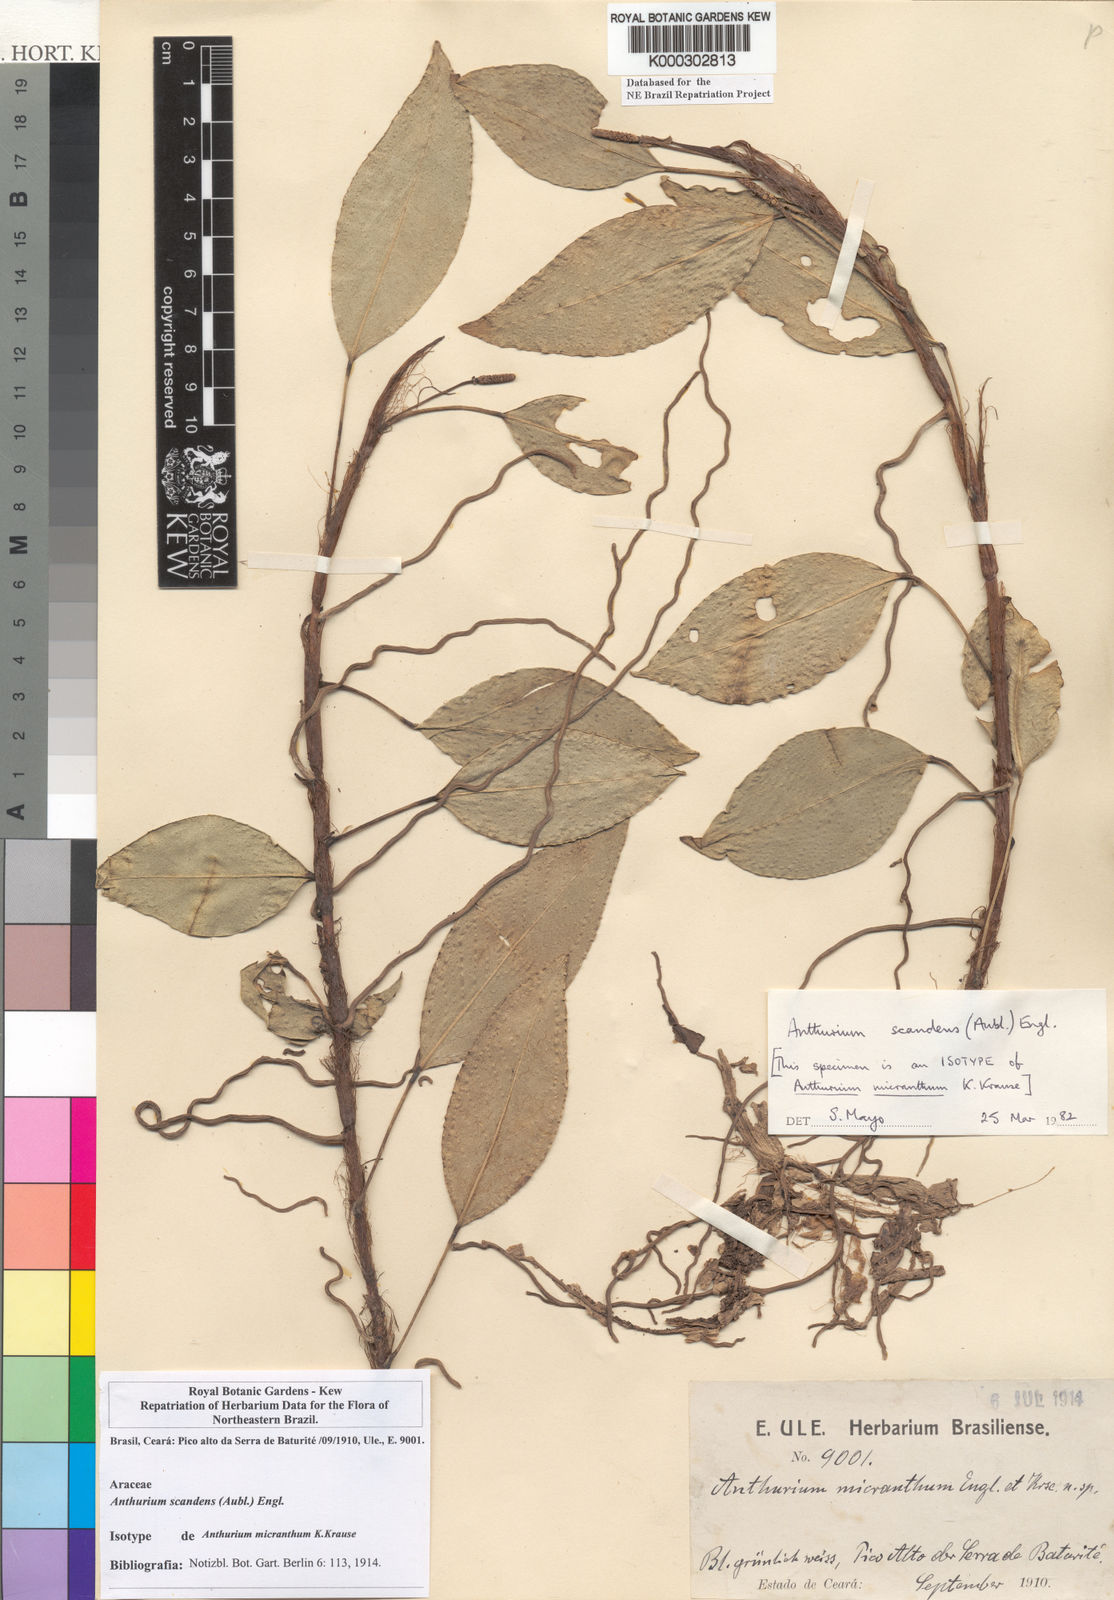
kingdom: Plantae
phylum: Tracheophyta
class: Liliopsida
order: Alismatales
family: Araceae
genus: Anthurium
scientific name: Anthurium scandens
